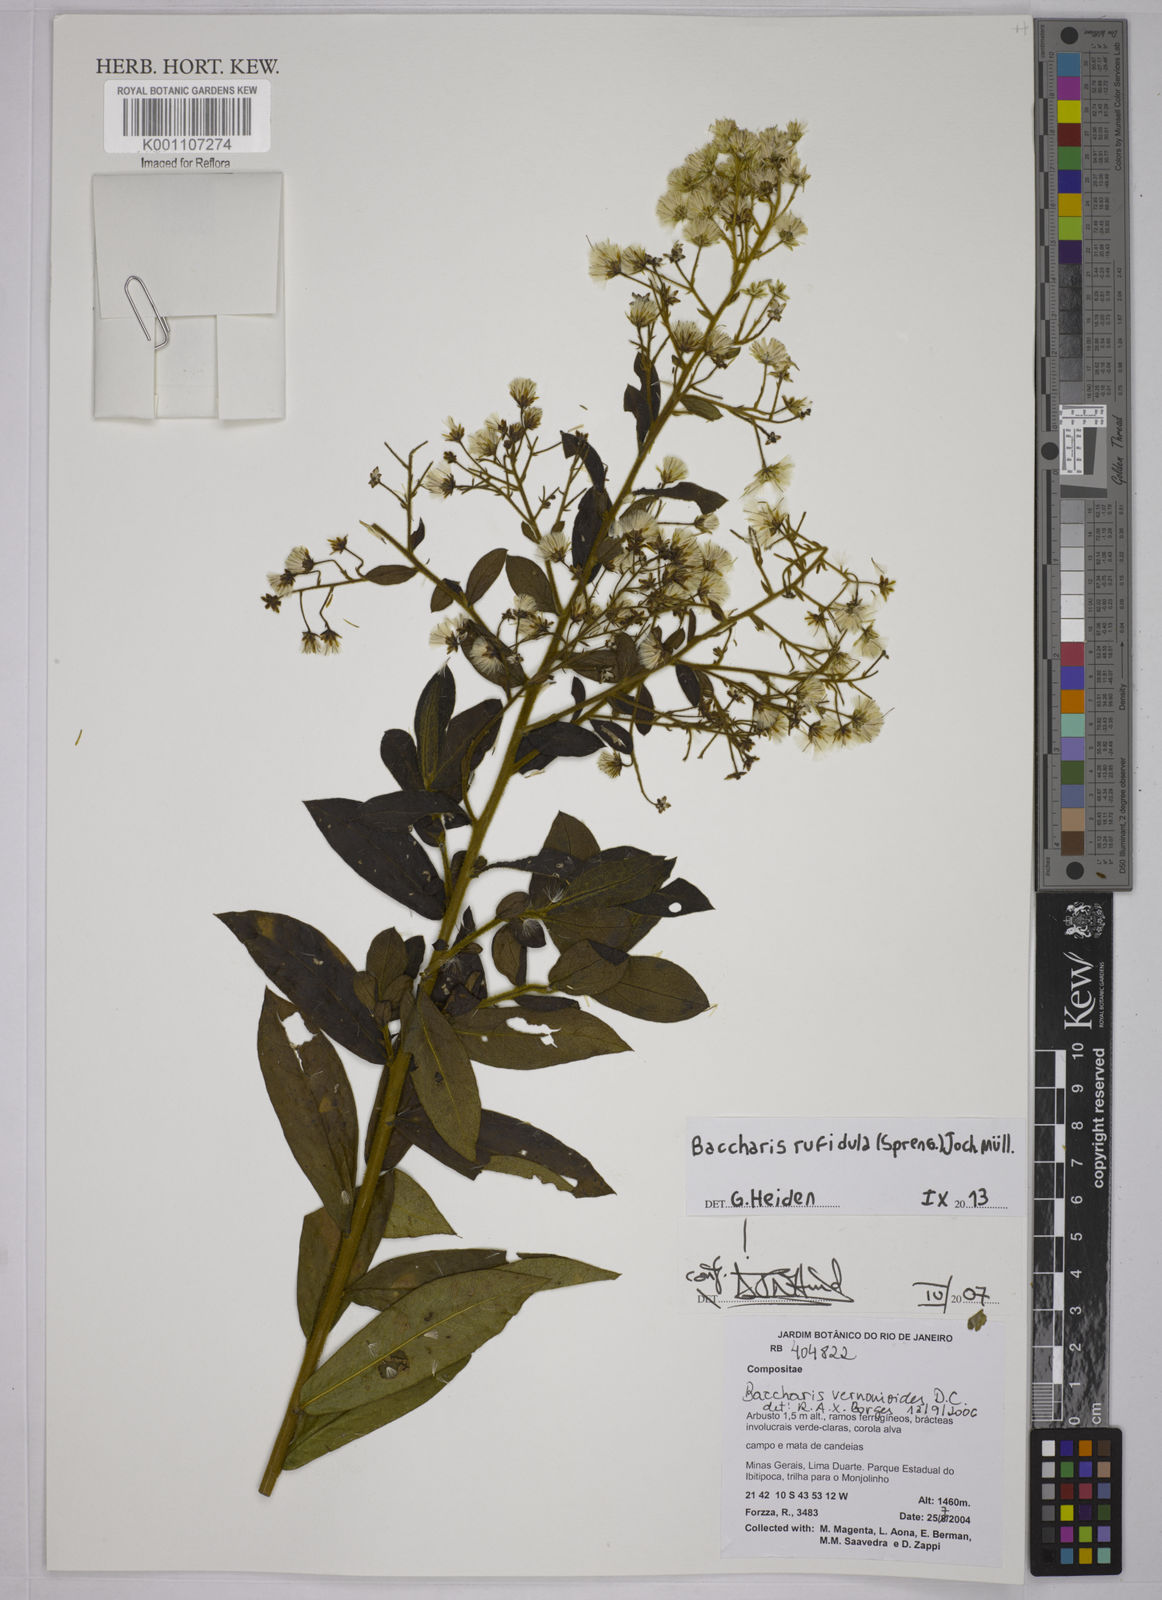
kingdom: Plantae
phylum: Tracheophyta
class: Magnoliopsida
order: Asterales
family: Asteraceae
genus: Baccharis
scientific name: Baccharis
